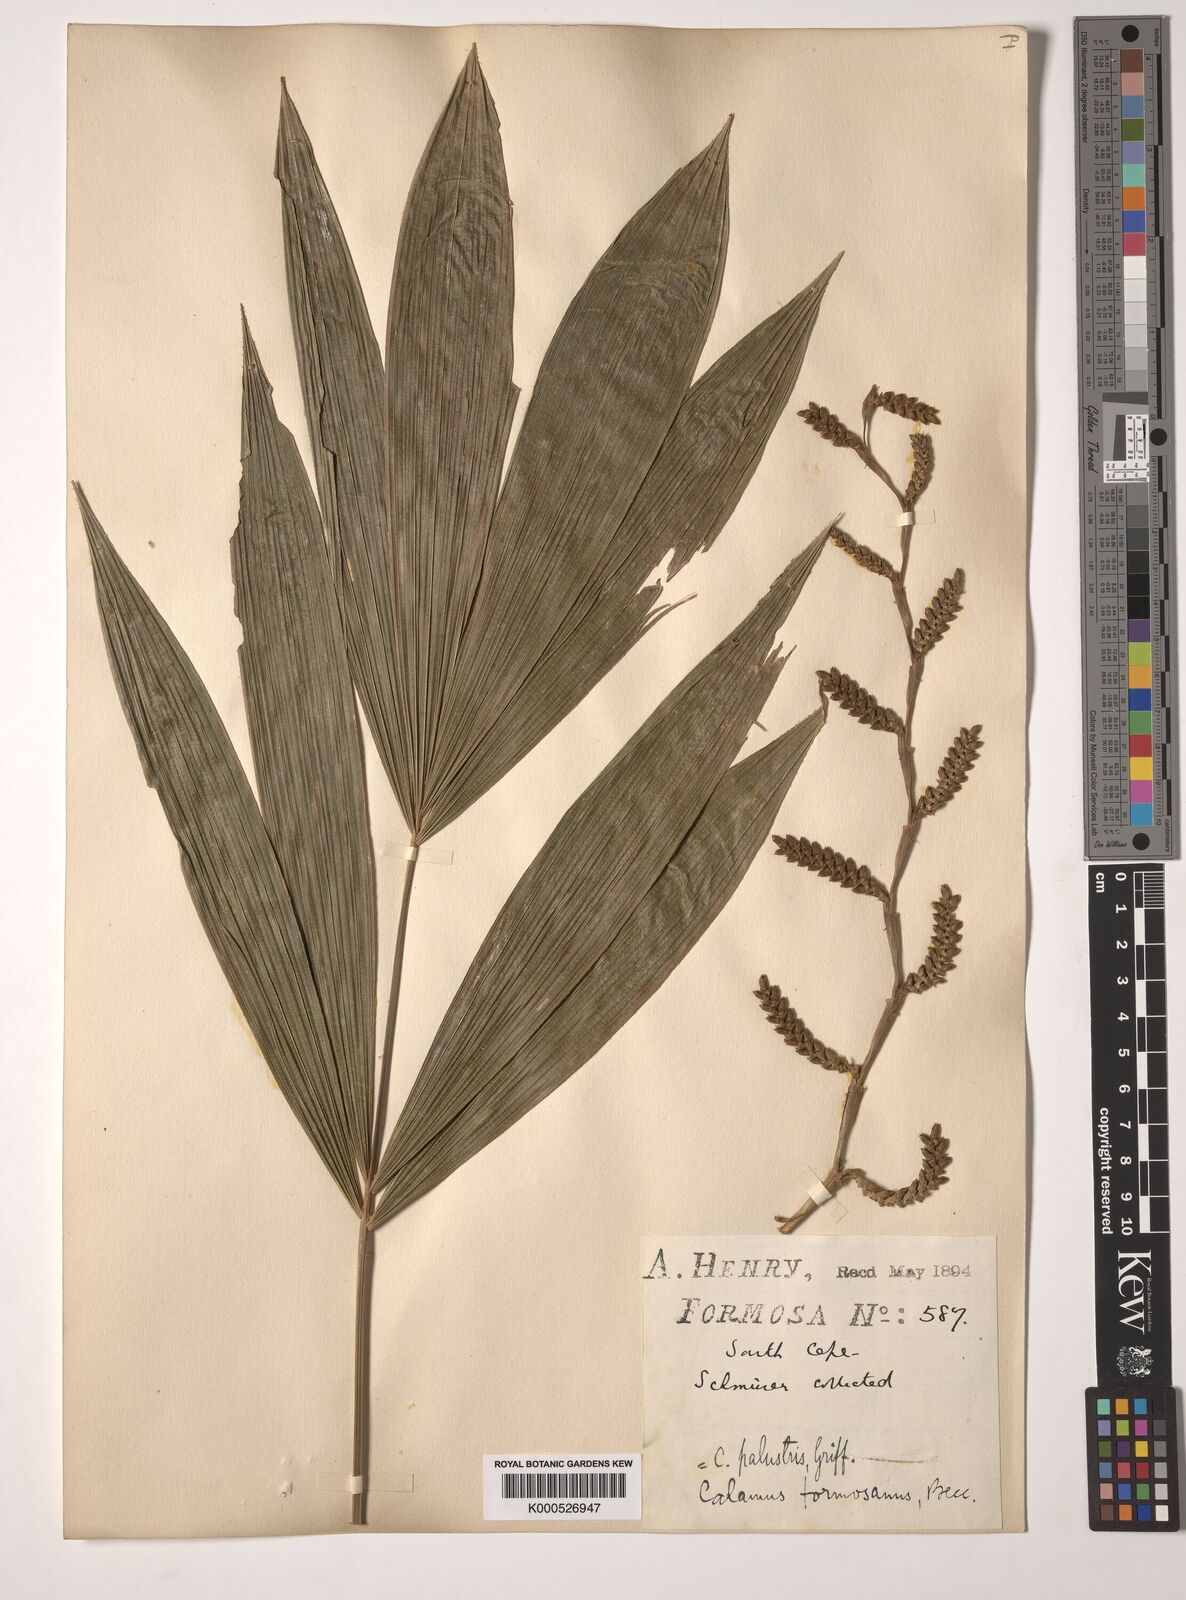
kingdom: Plantae
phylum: Tracheophyta
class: Liliopsida
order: Arecales
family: Arecaceae
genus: Calamus
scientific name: Calamus formosanus
